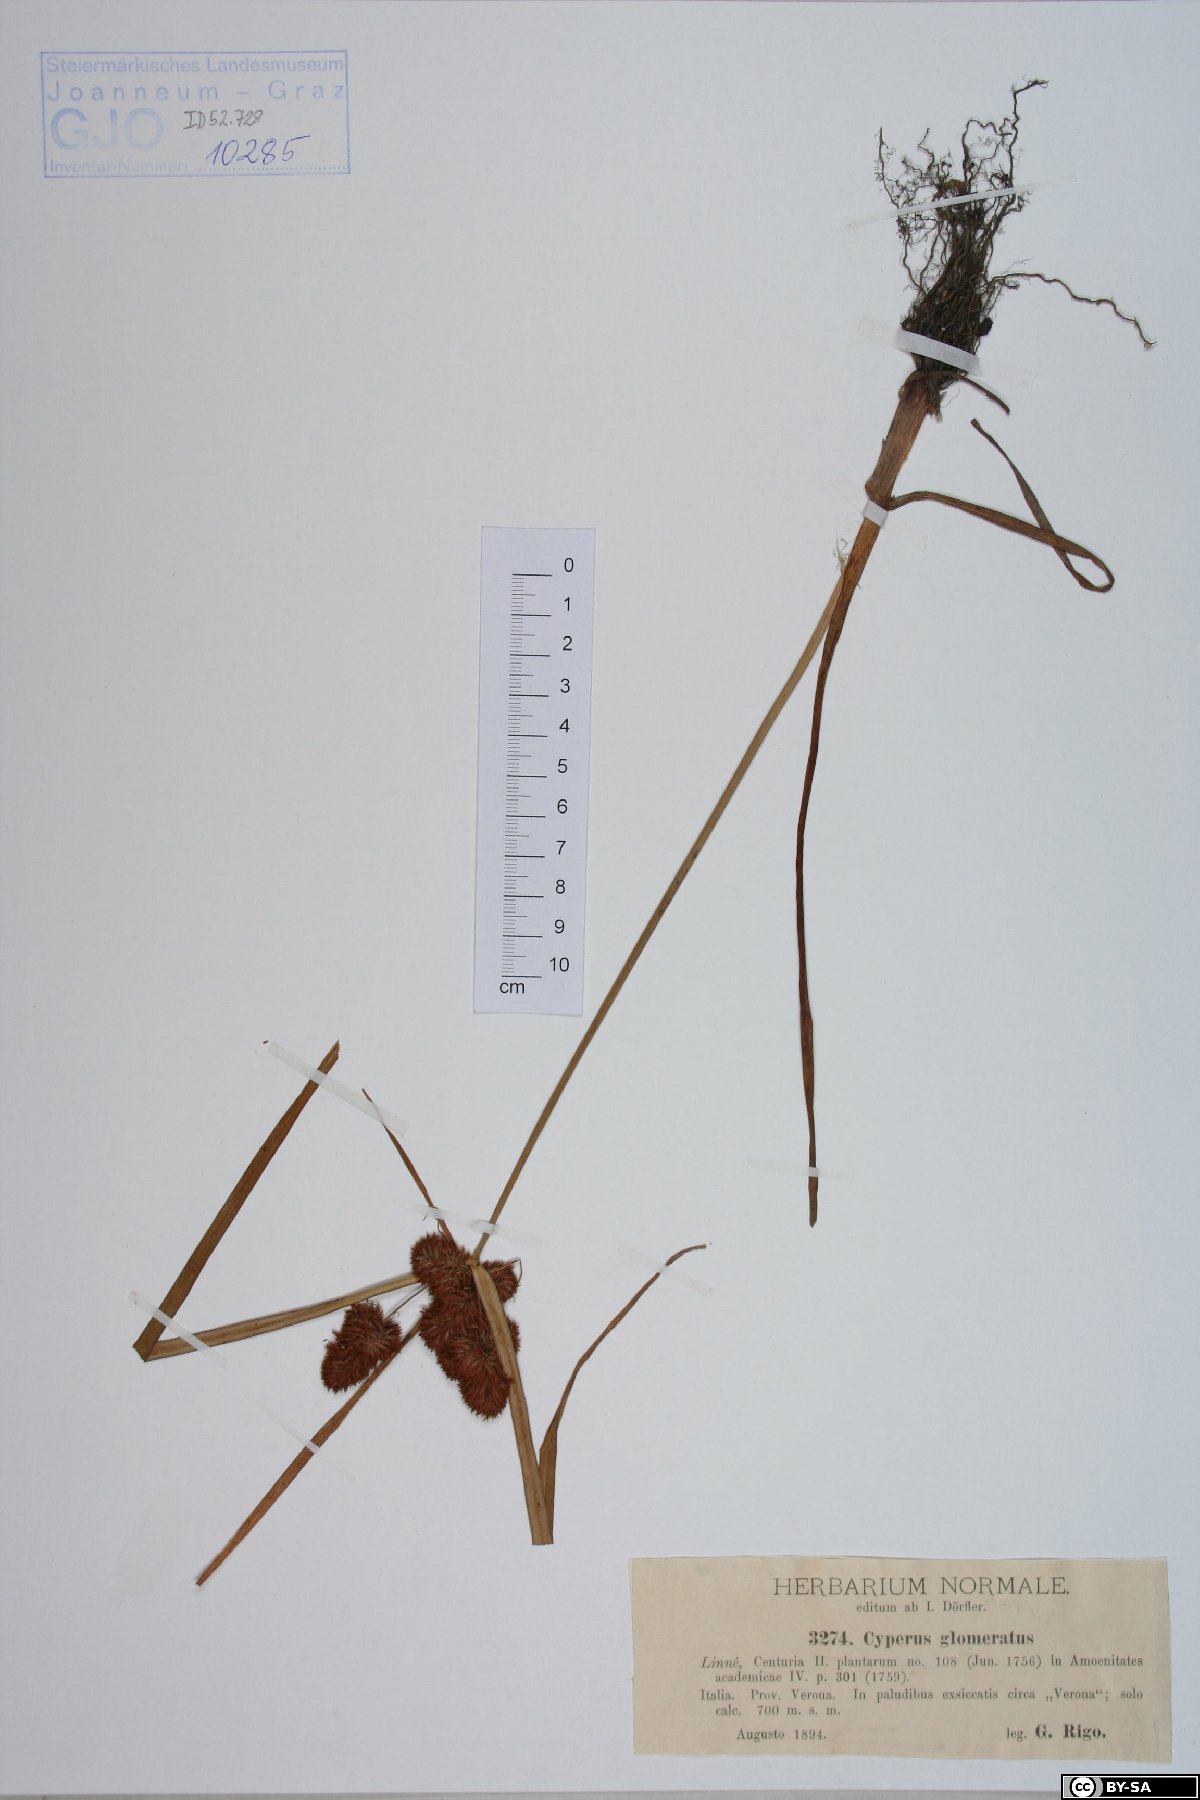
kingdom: Plantae
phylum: Tracheophyta
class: Liliopsida
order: Poales
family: Cyperaceae
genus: Cyperus
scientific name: Cyperus glomeratus
